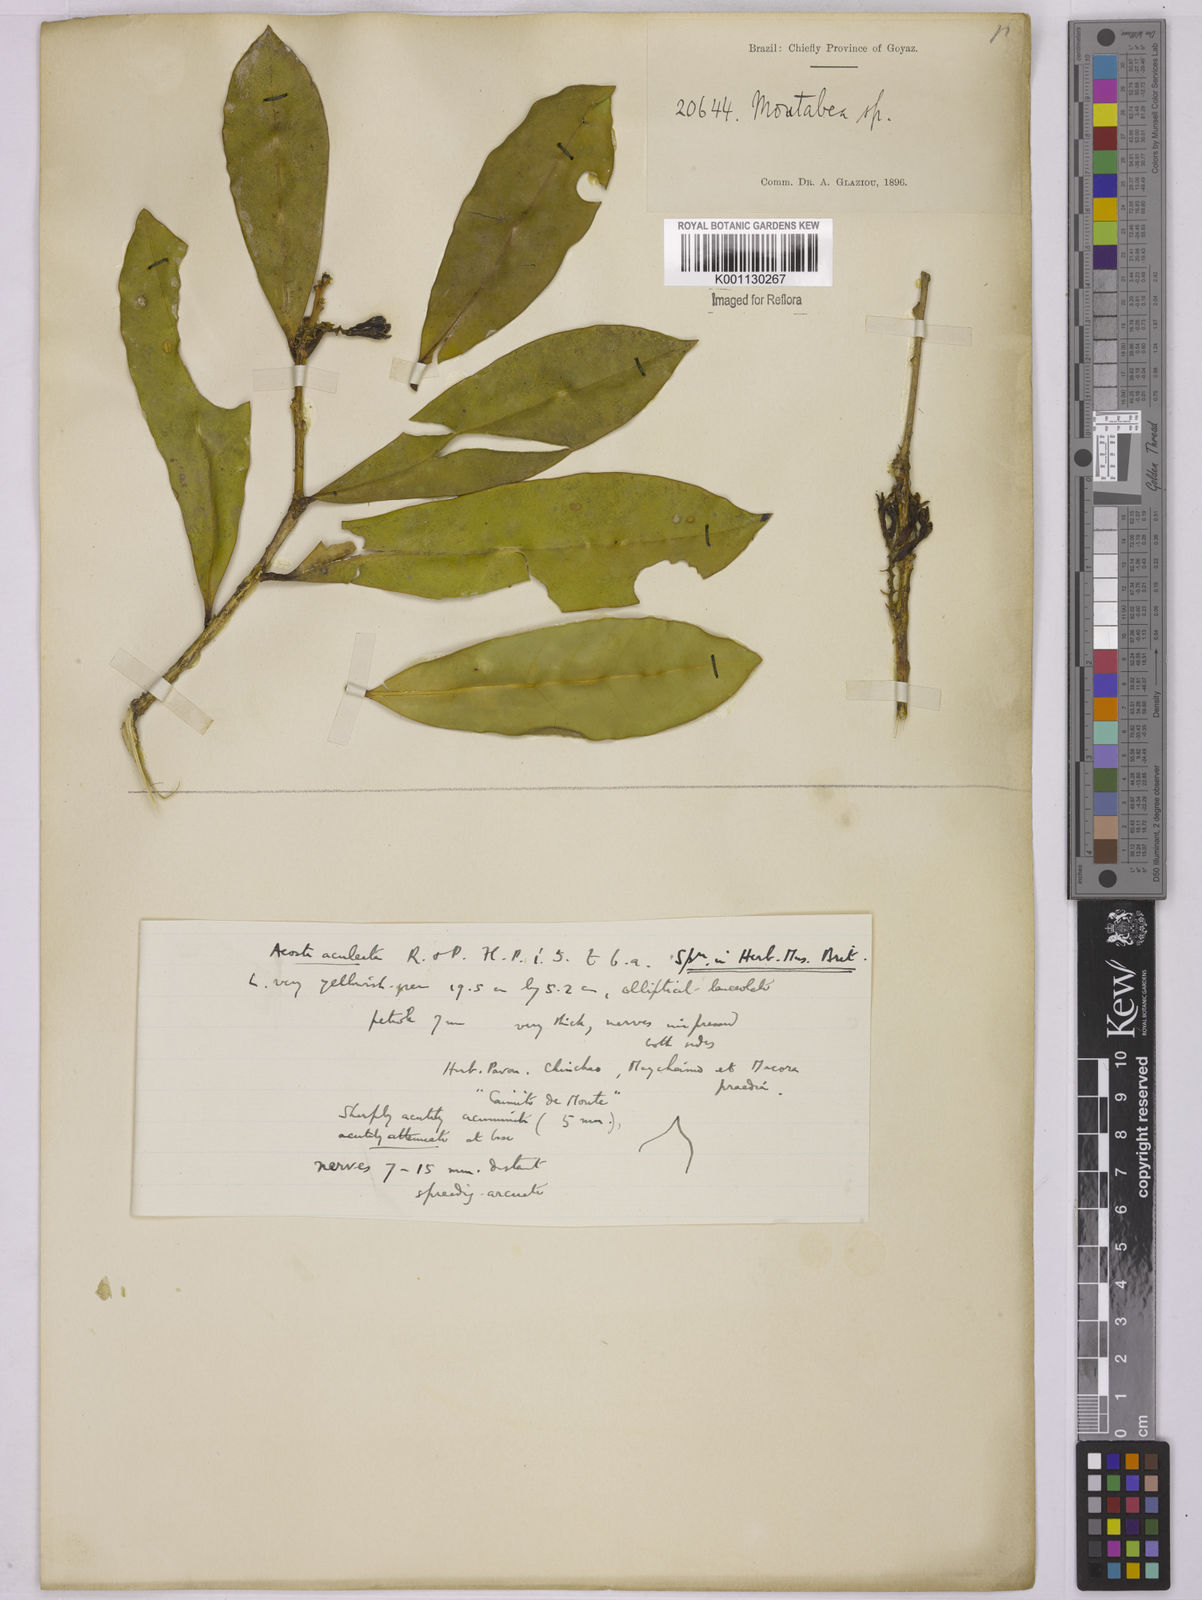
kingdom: Plantae
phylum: Tracheophyta
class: Magnoliopsida
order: Fabales
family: Polygalaceae
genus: Moutabea
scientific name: Moutabea aculeata
